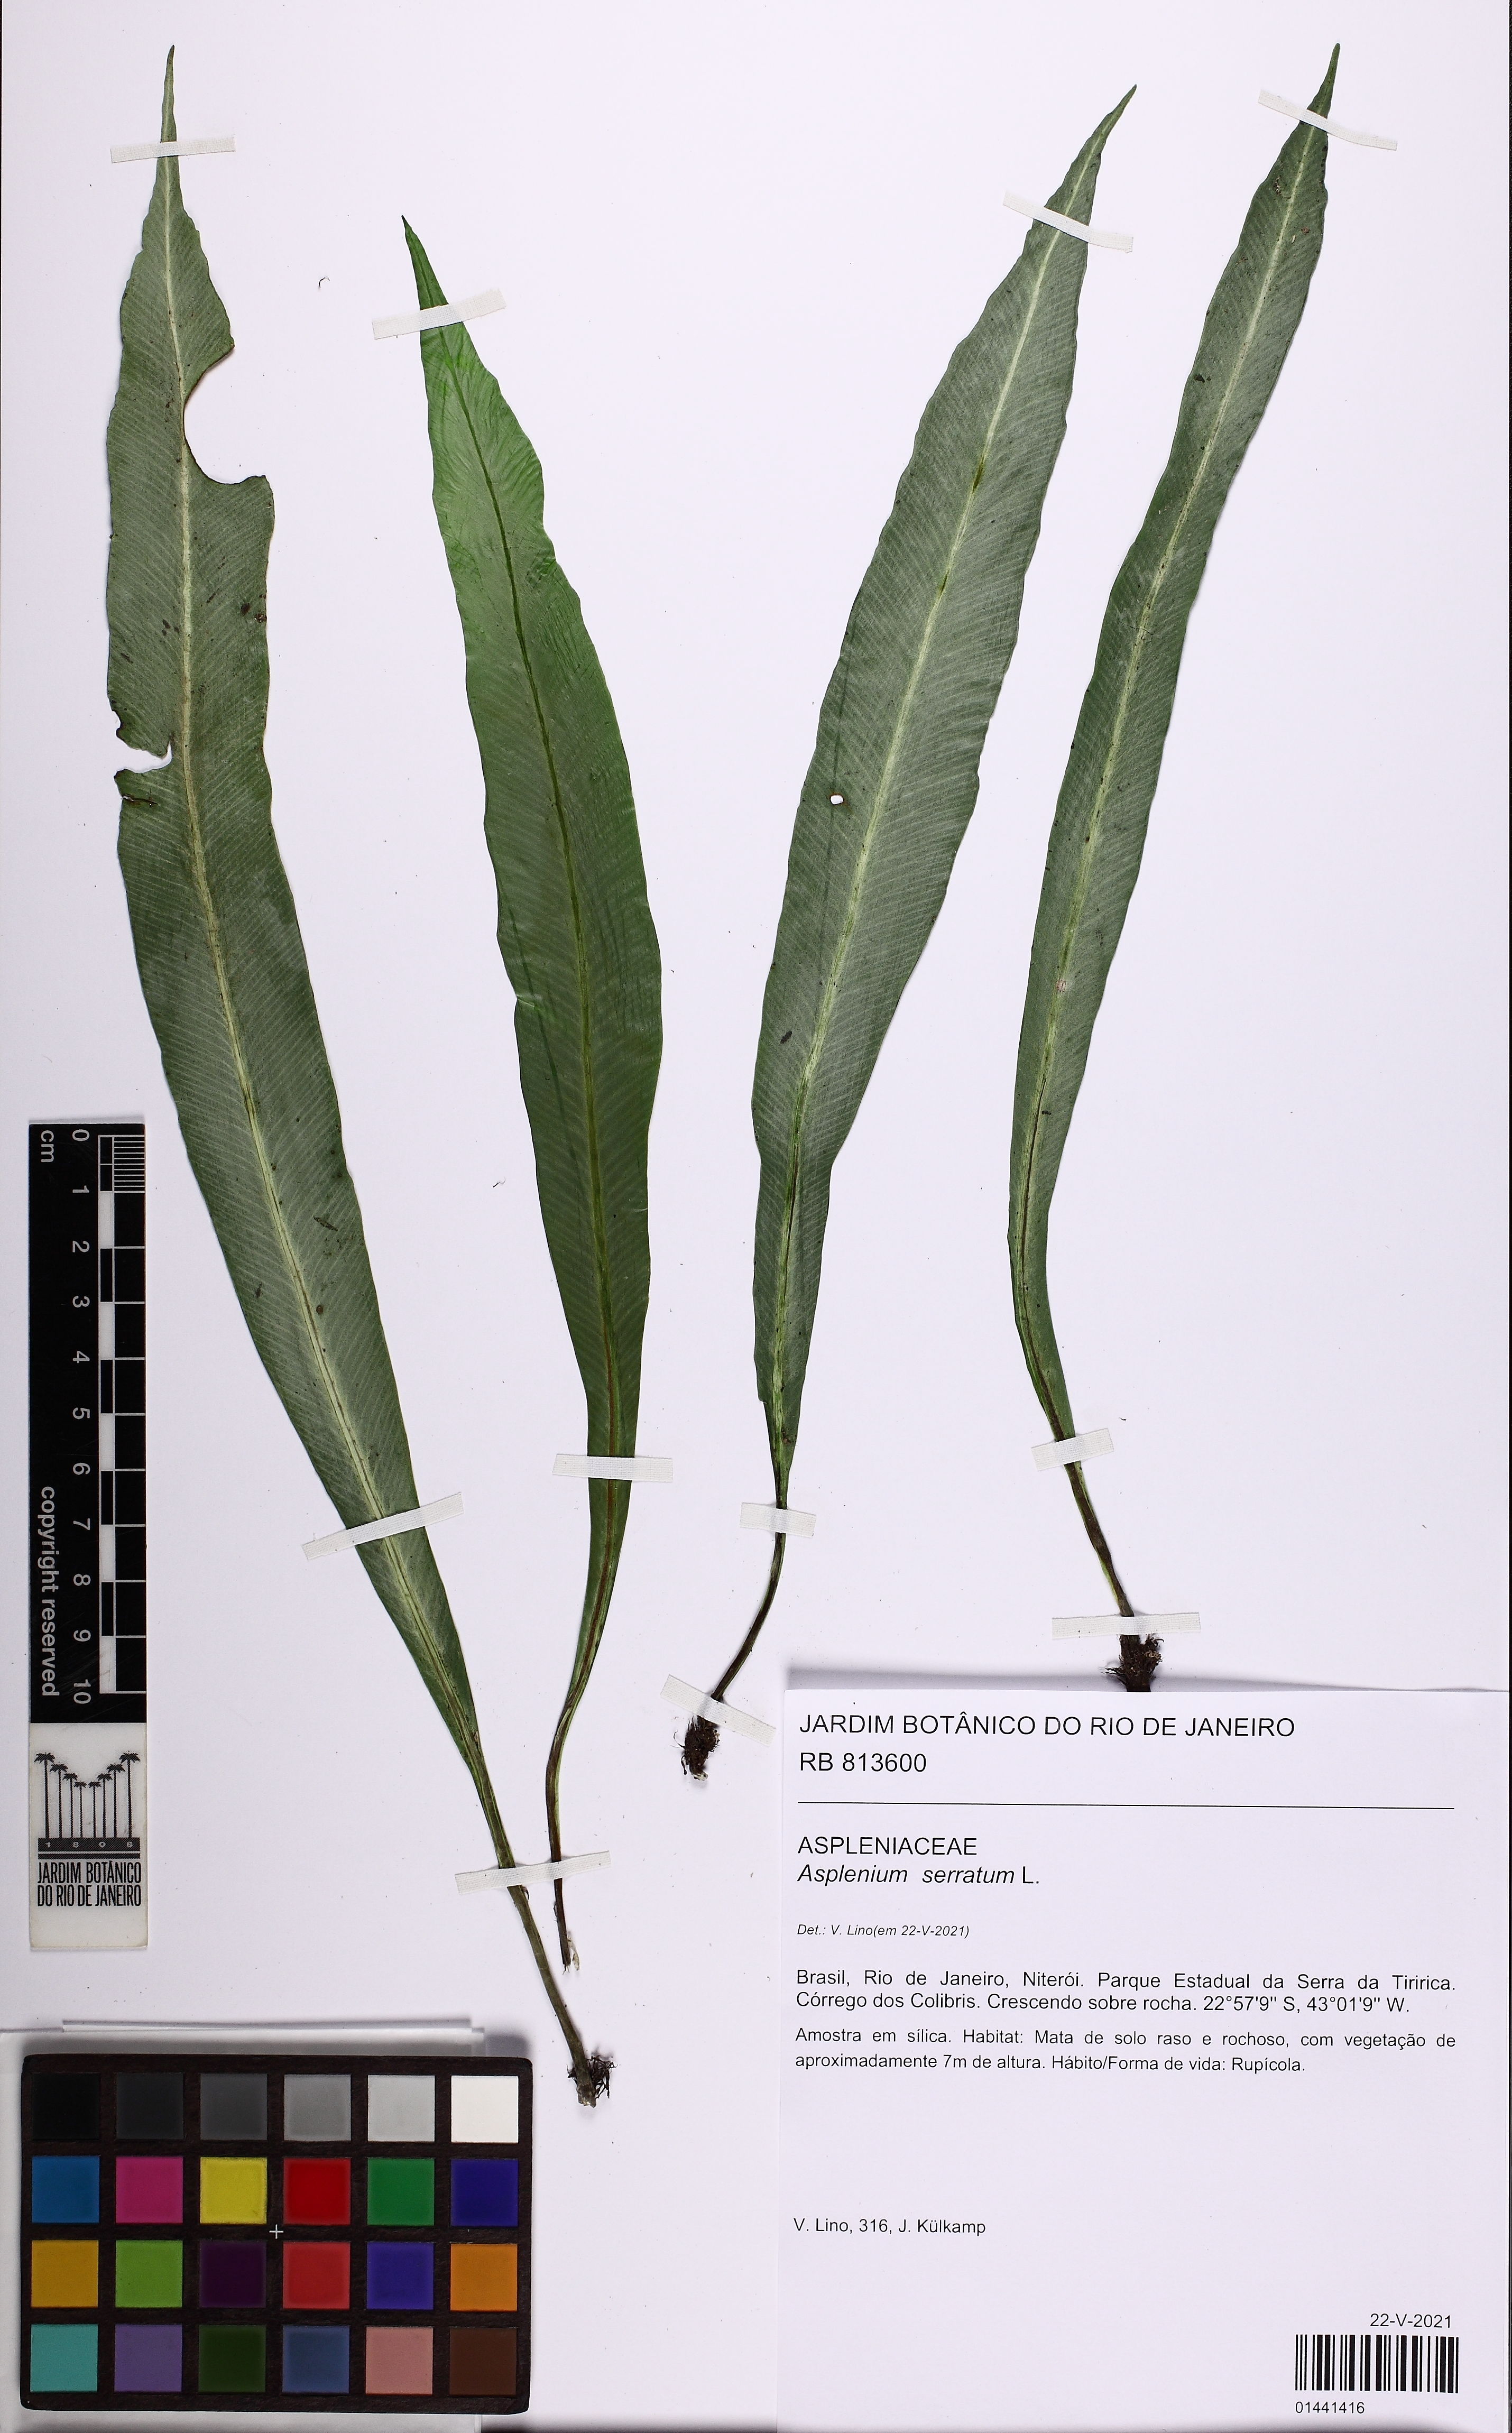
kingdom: Plantae
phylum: Tracheophyta
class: Polypodiopsida
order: Polypodiales
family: Aspleniaceae
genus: Asplenium
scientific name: Asplenium coronatum
